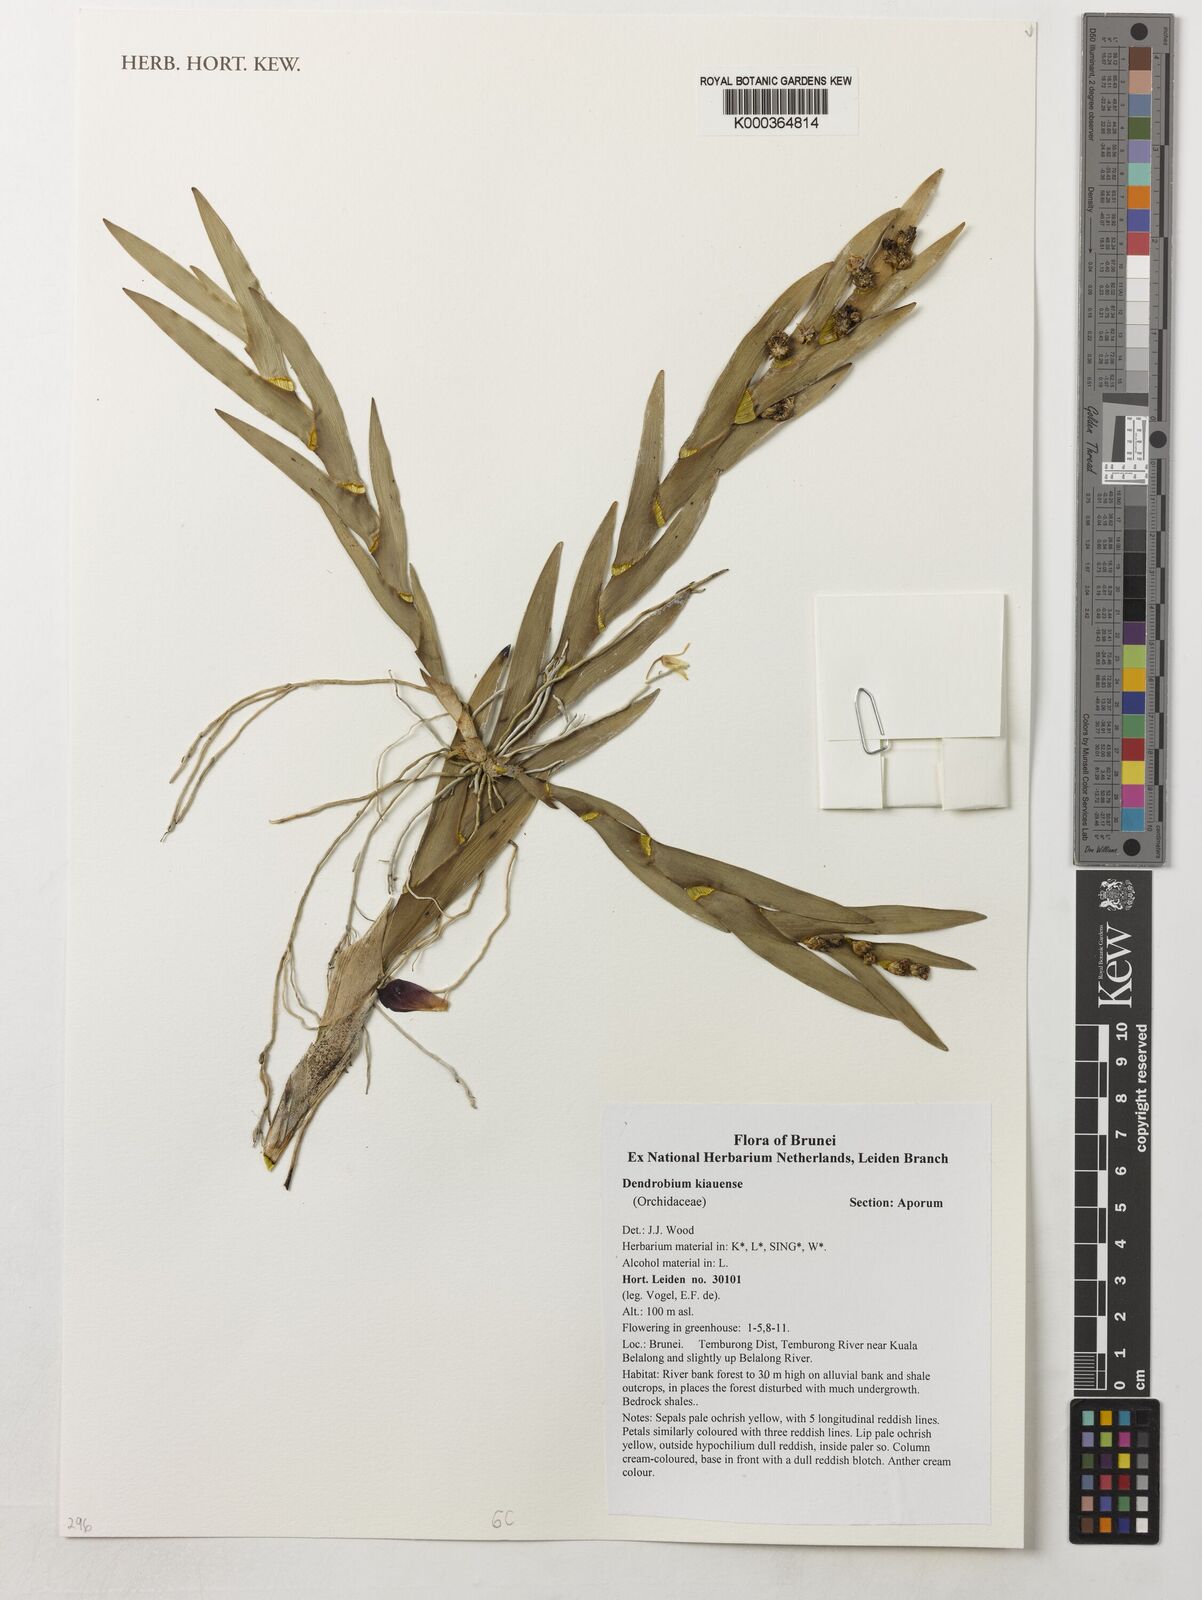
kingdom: Plantae
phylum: Tracheophyta
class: Liliopsida
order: Asparagales
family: Orchidaceae
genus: Dendrobium
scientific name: Dendrobium kiauense
